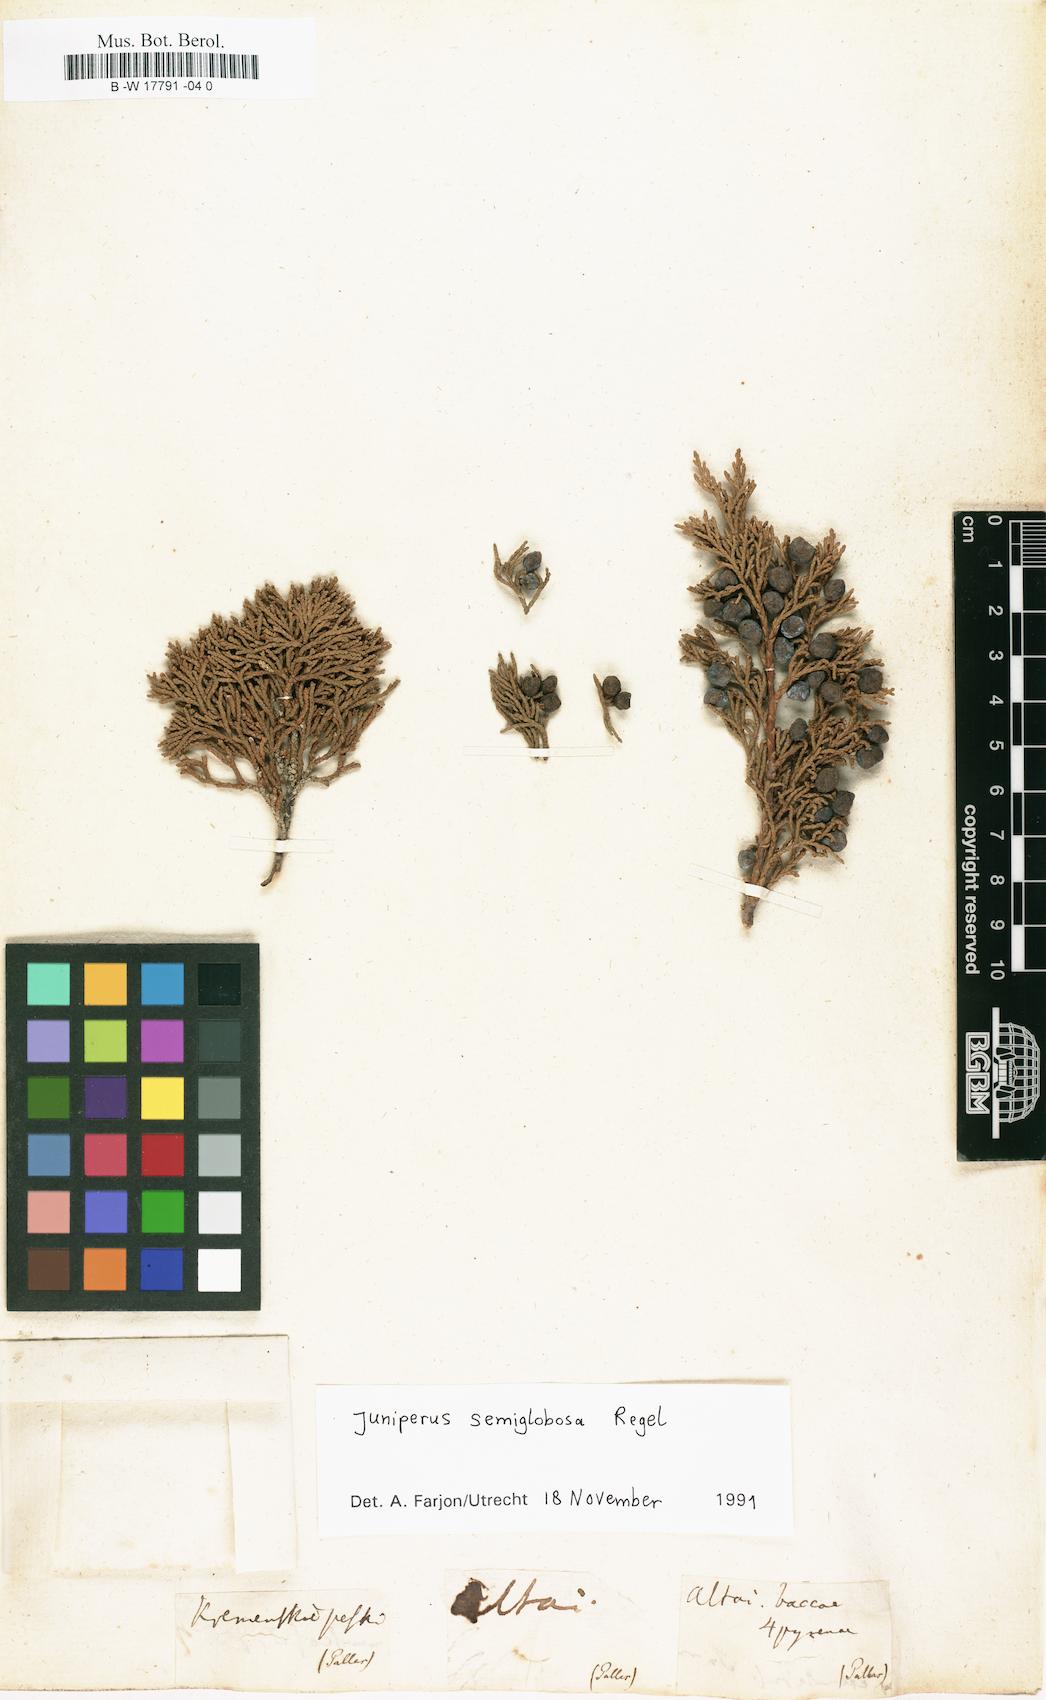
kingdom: Plantae
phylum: Tracheophyta
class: Pinopsida
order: Pinales
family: Cupressaceae
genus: Cupressus
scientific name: Cupressus
